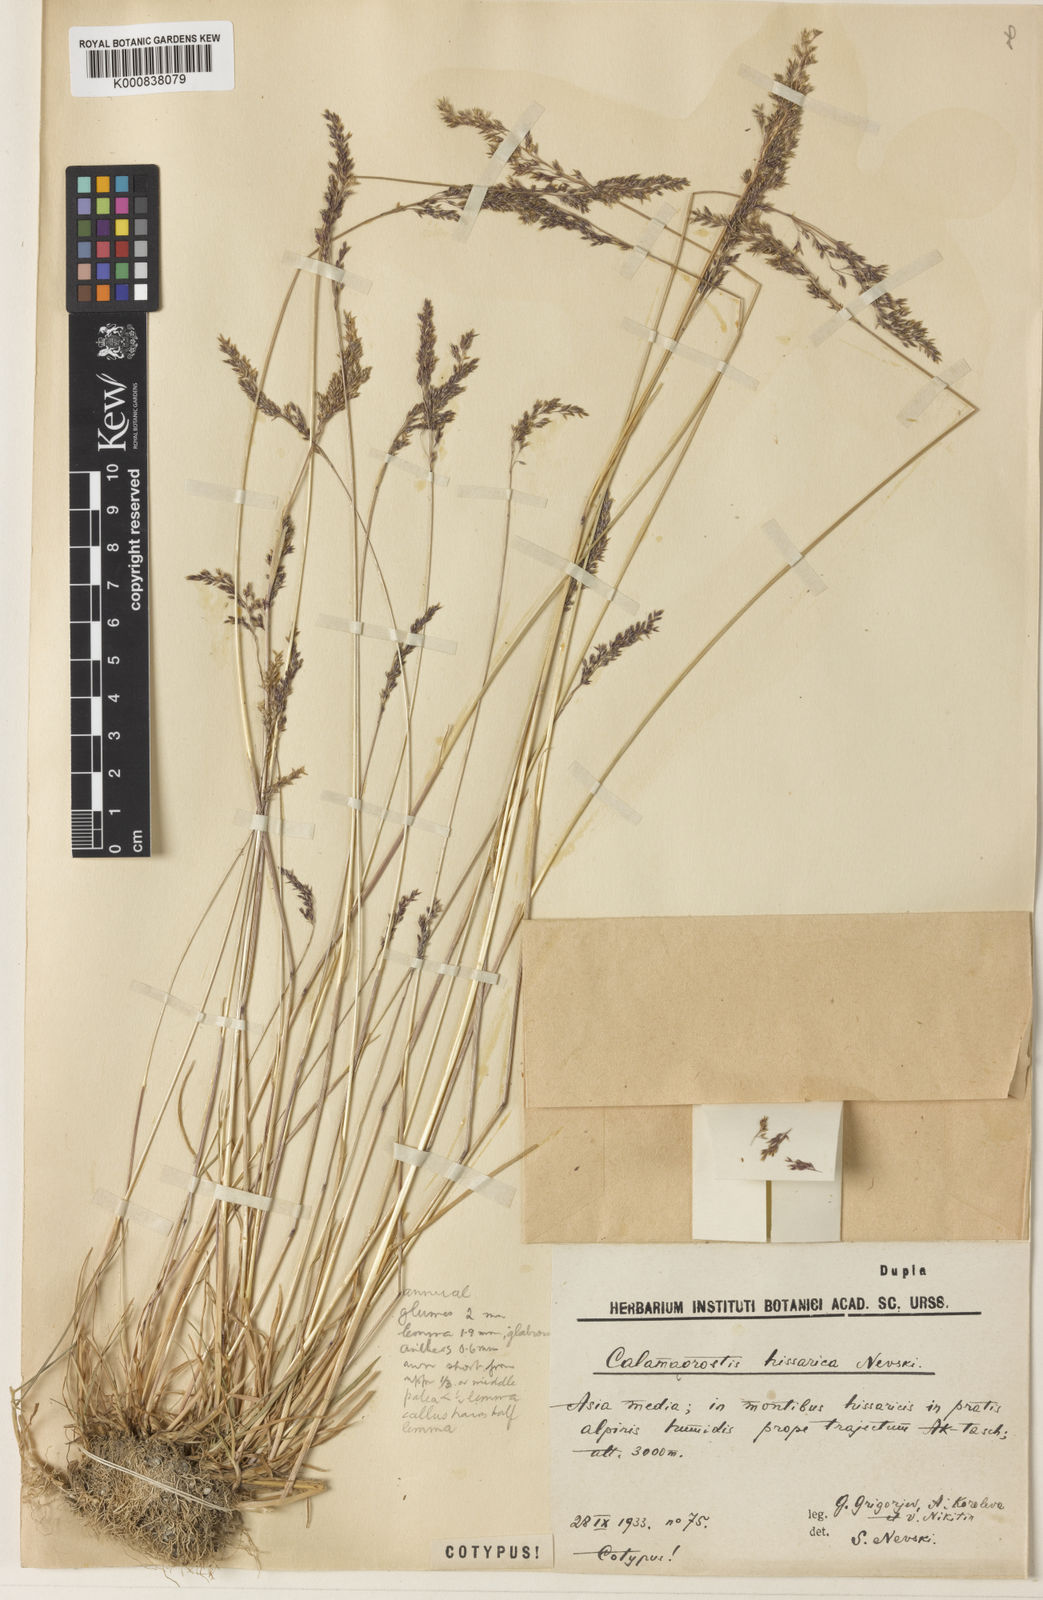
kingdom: Plantae
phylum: Tracheophyta
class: Liliopsida
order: Poales
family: Poaceae
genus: Agrostis
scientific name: Agrostis nevskii
